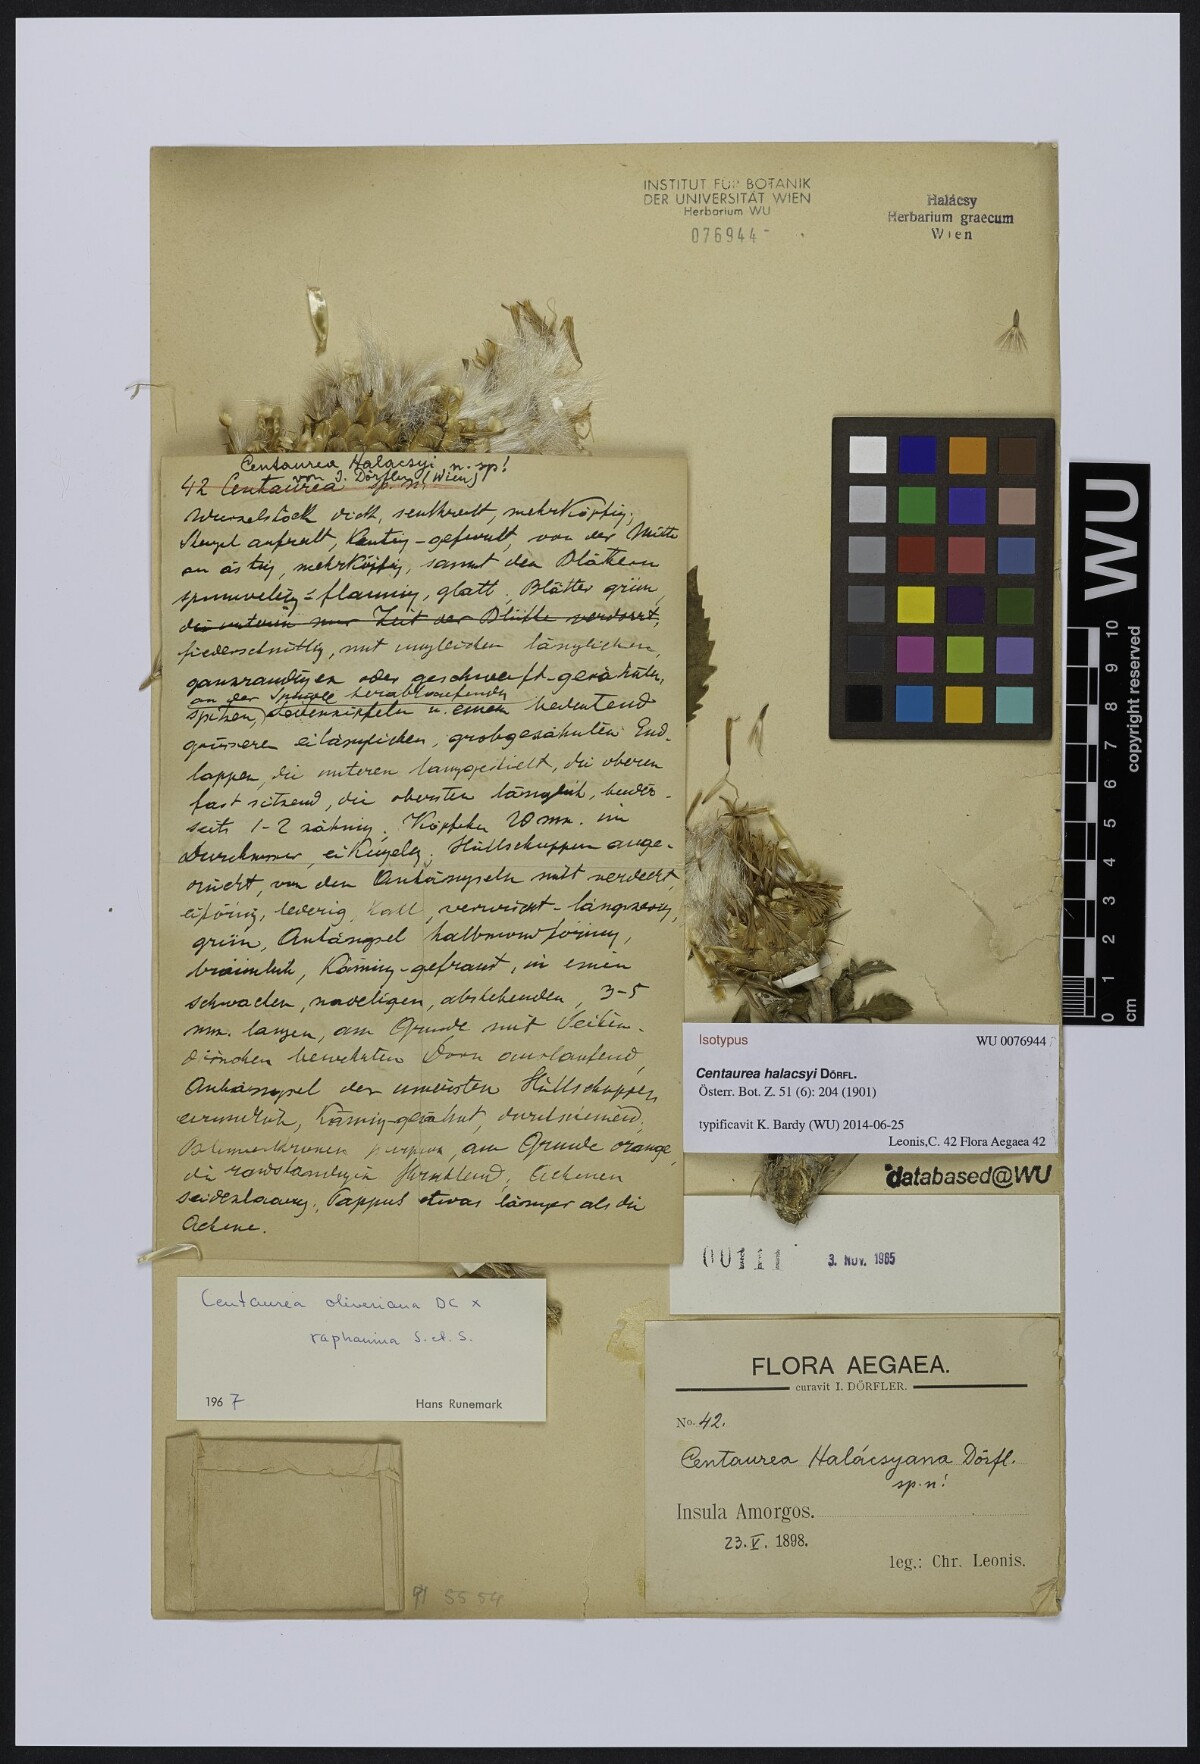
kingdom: Plantae
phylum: Tracheophyta
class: Magnoliopsida
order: Asterales
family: Asteraceae
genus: Centaurea
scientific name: Centaurea wettsteinii
